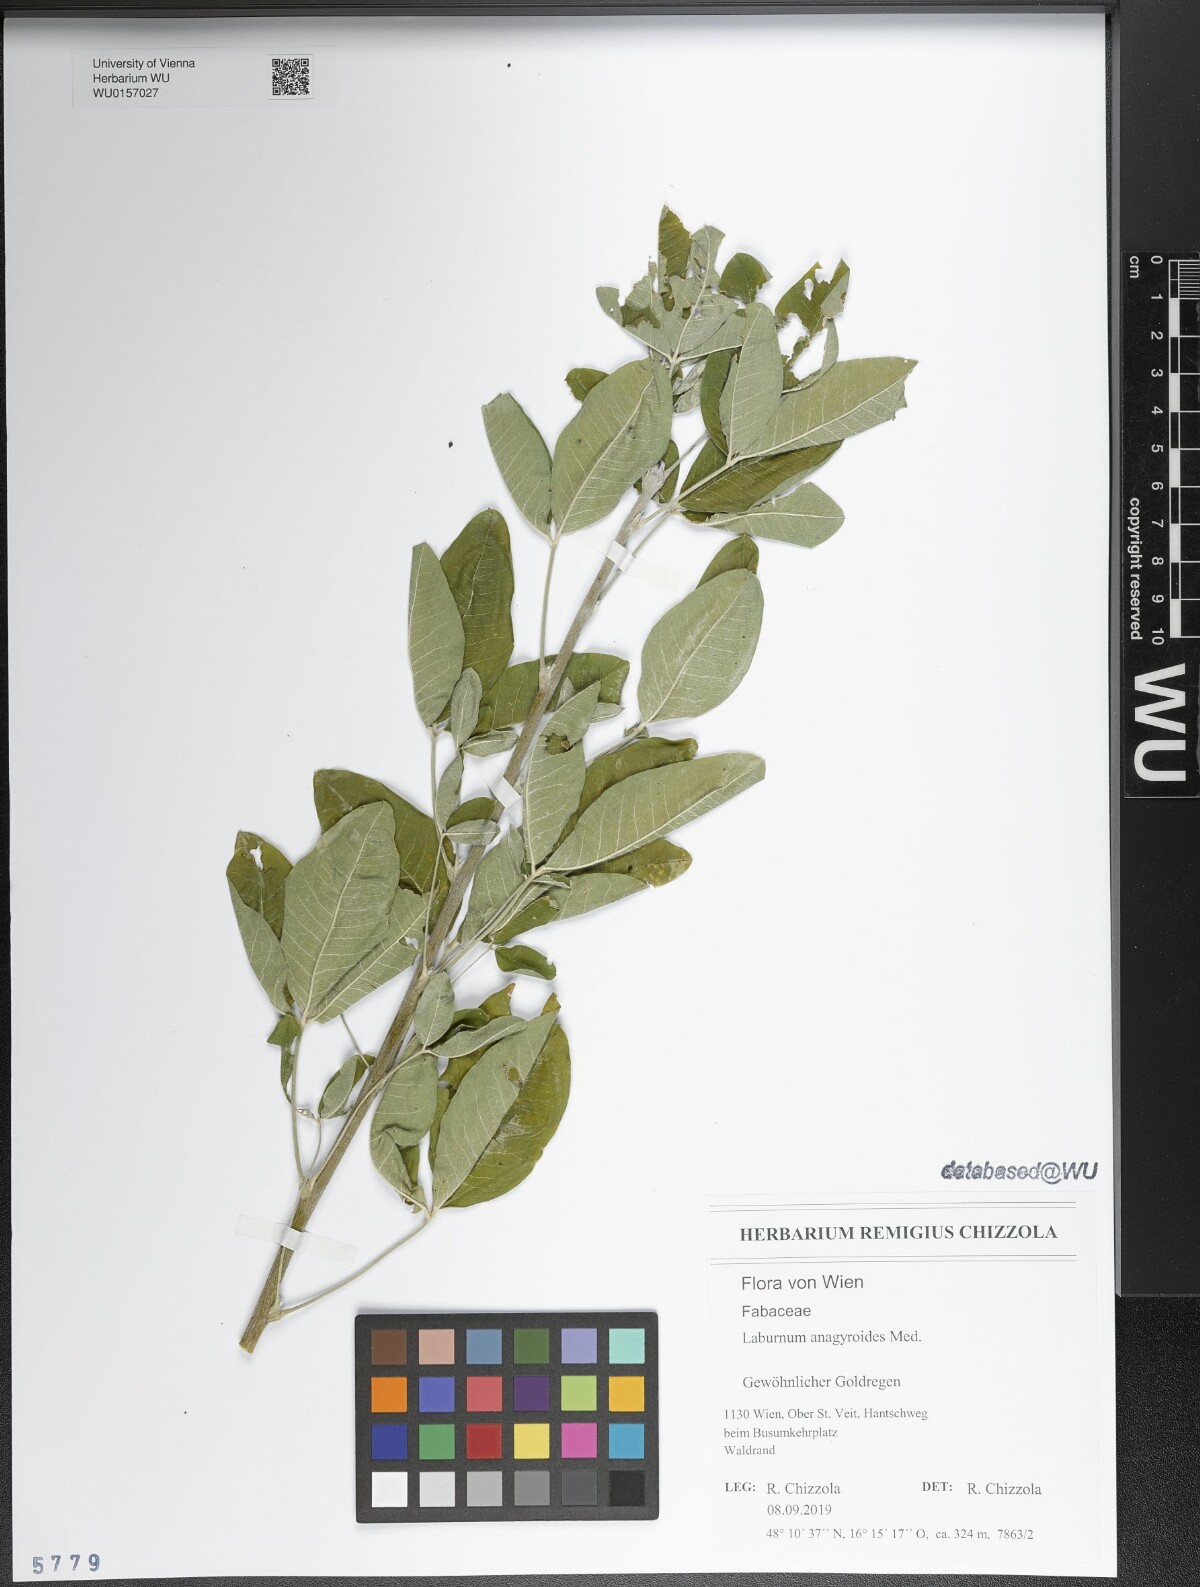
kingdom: Plantae
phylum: Tracheophyta
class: Magnoliopsida
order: Fabales
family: Fabaceae
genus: Laburnum
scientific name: Laburnum anagyroides
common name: Laburnum
